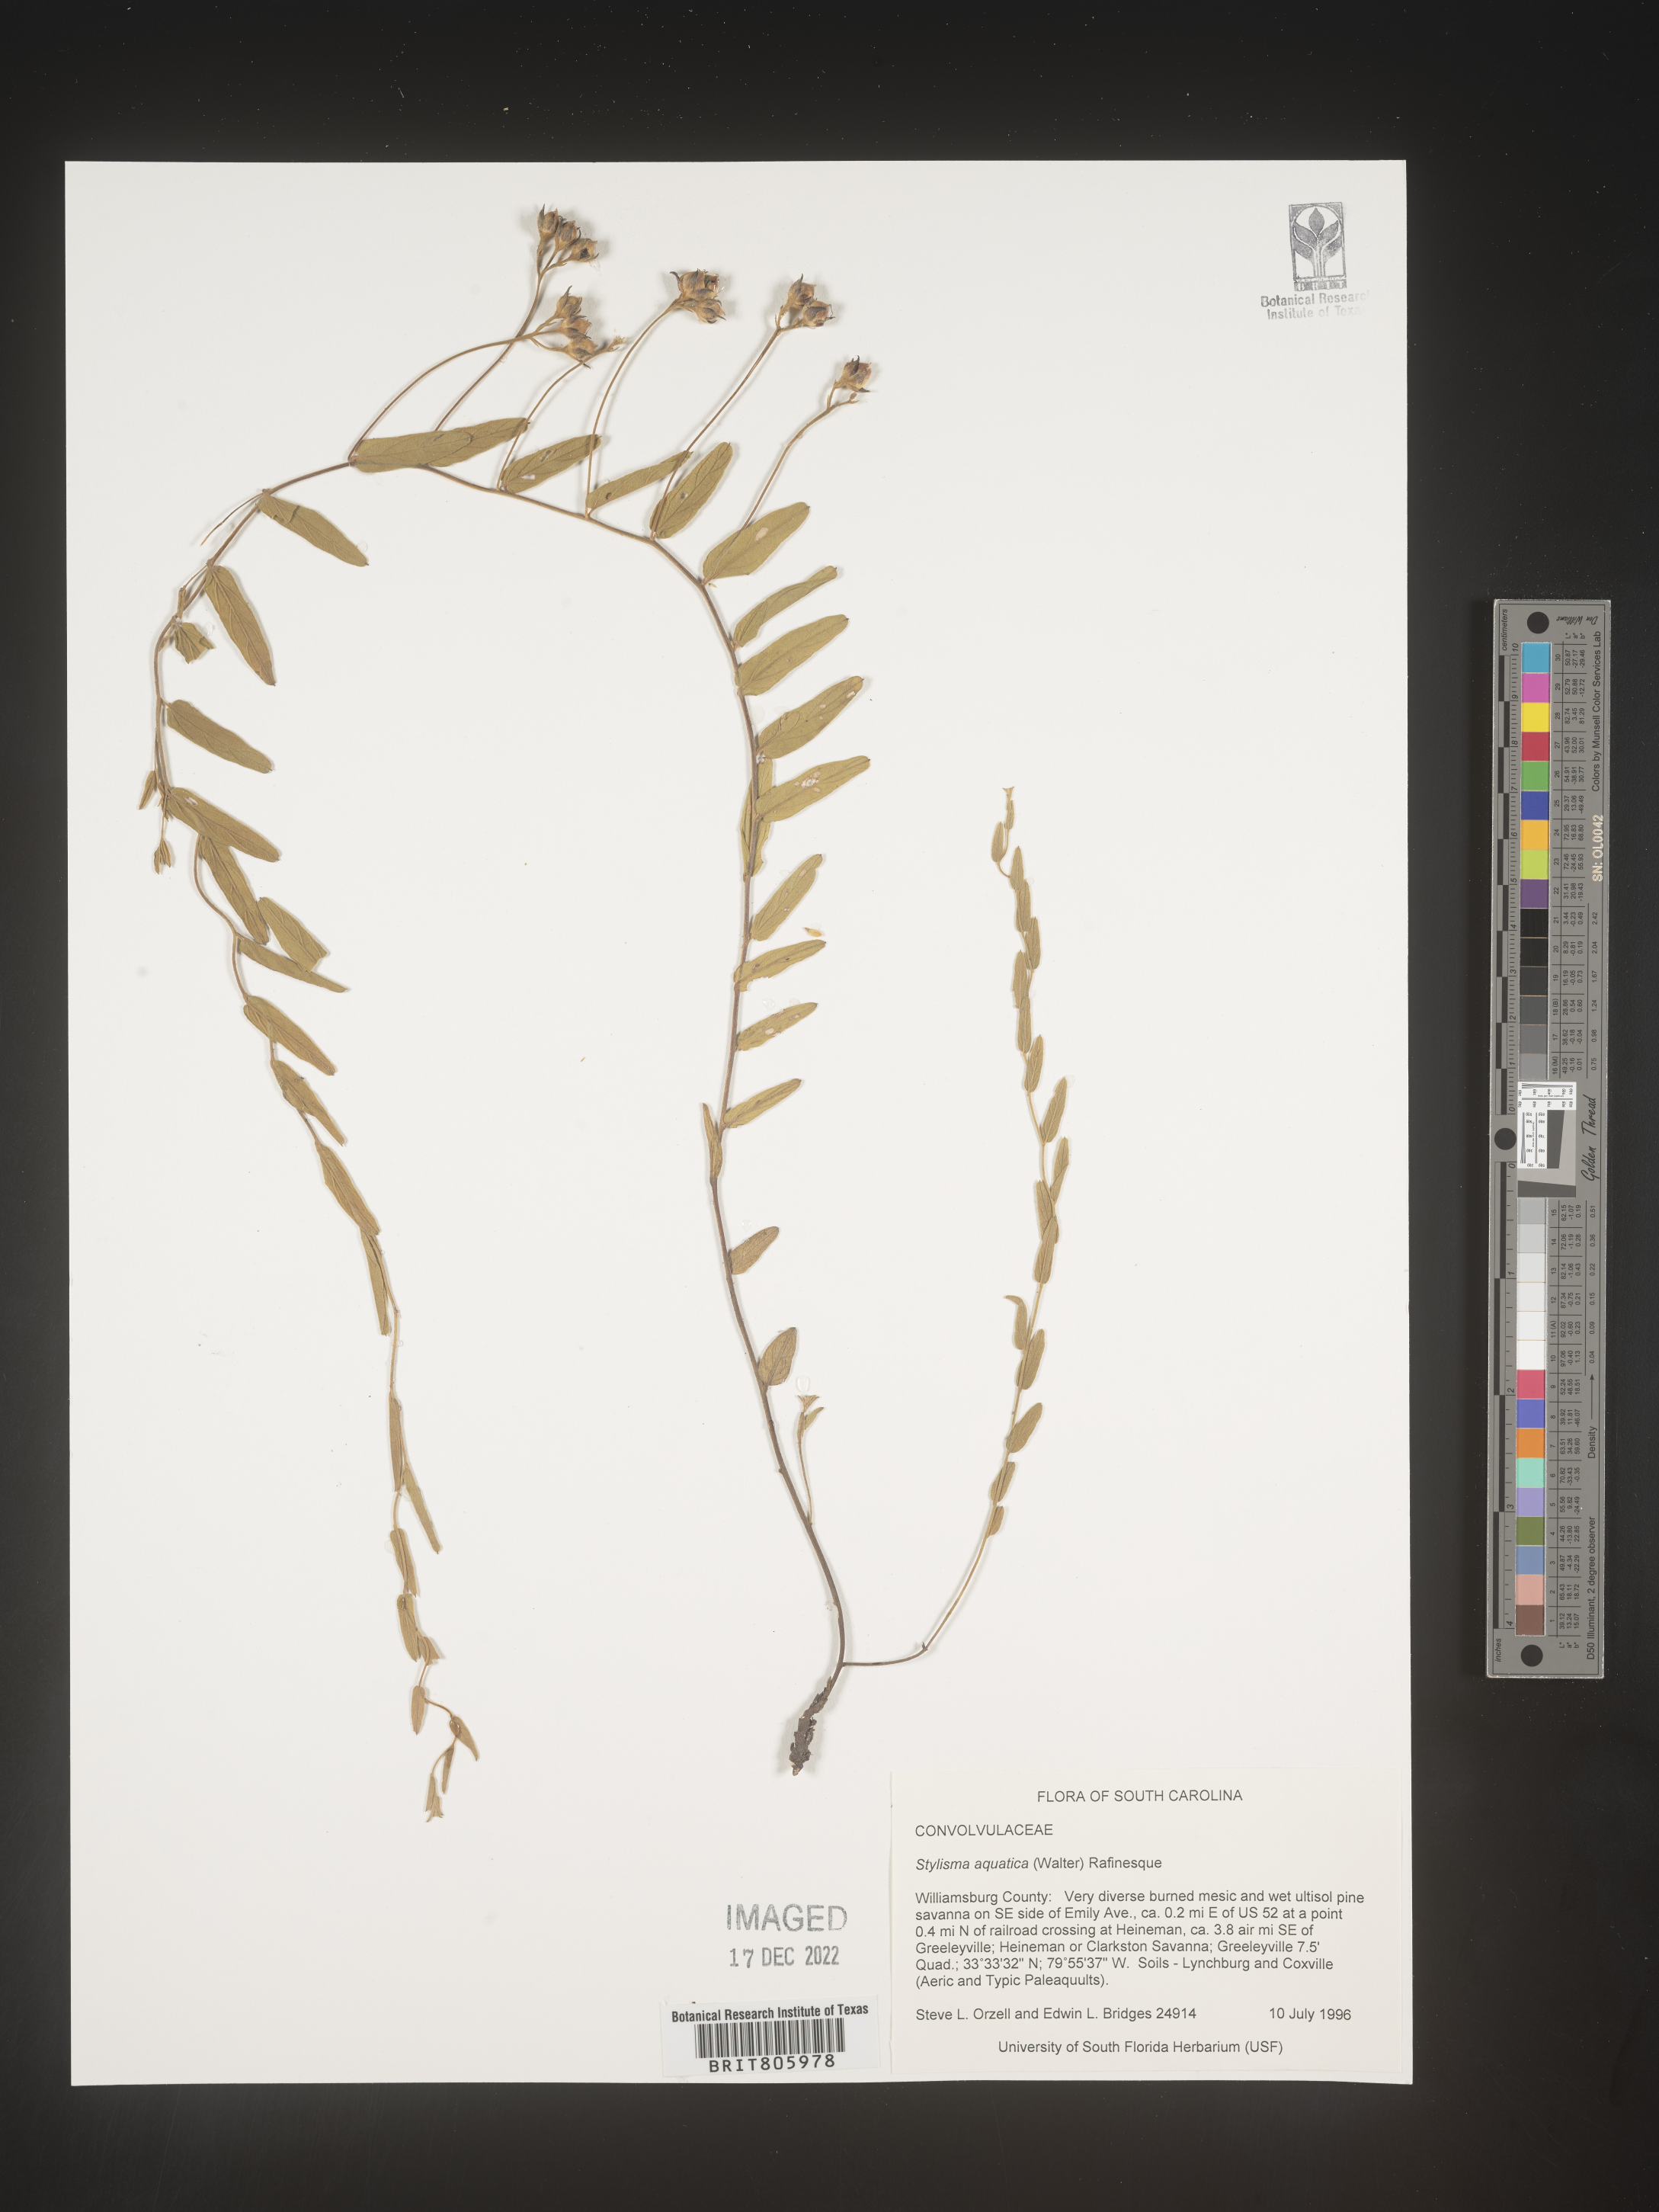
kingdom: Plantae
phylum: Tracheophyta
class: Magnoliopsida
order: Solanales
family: Convolvulaceae
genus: Stylisma
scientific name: Stylisma
